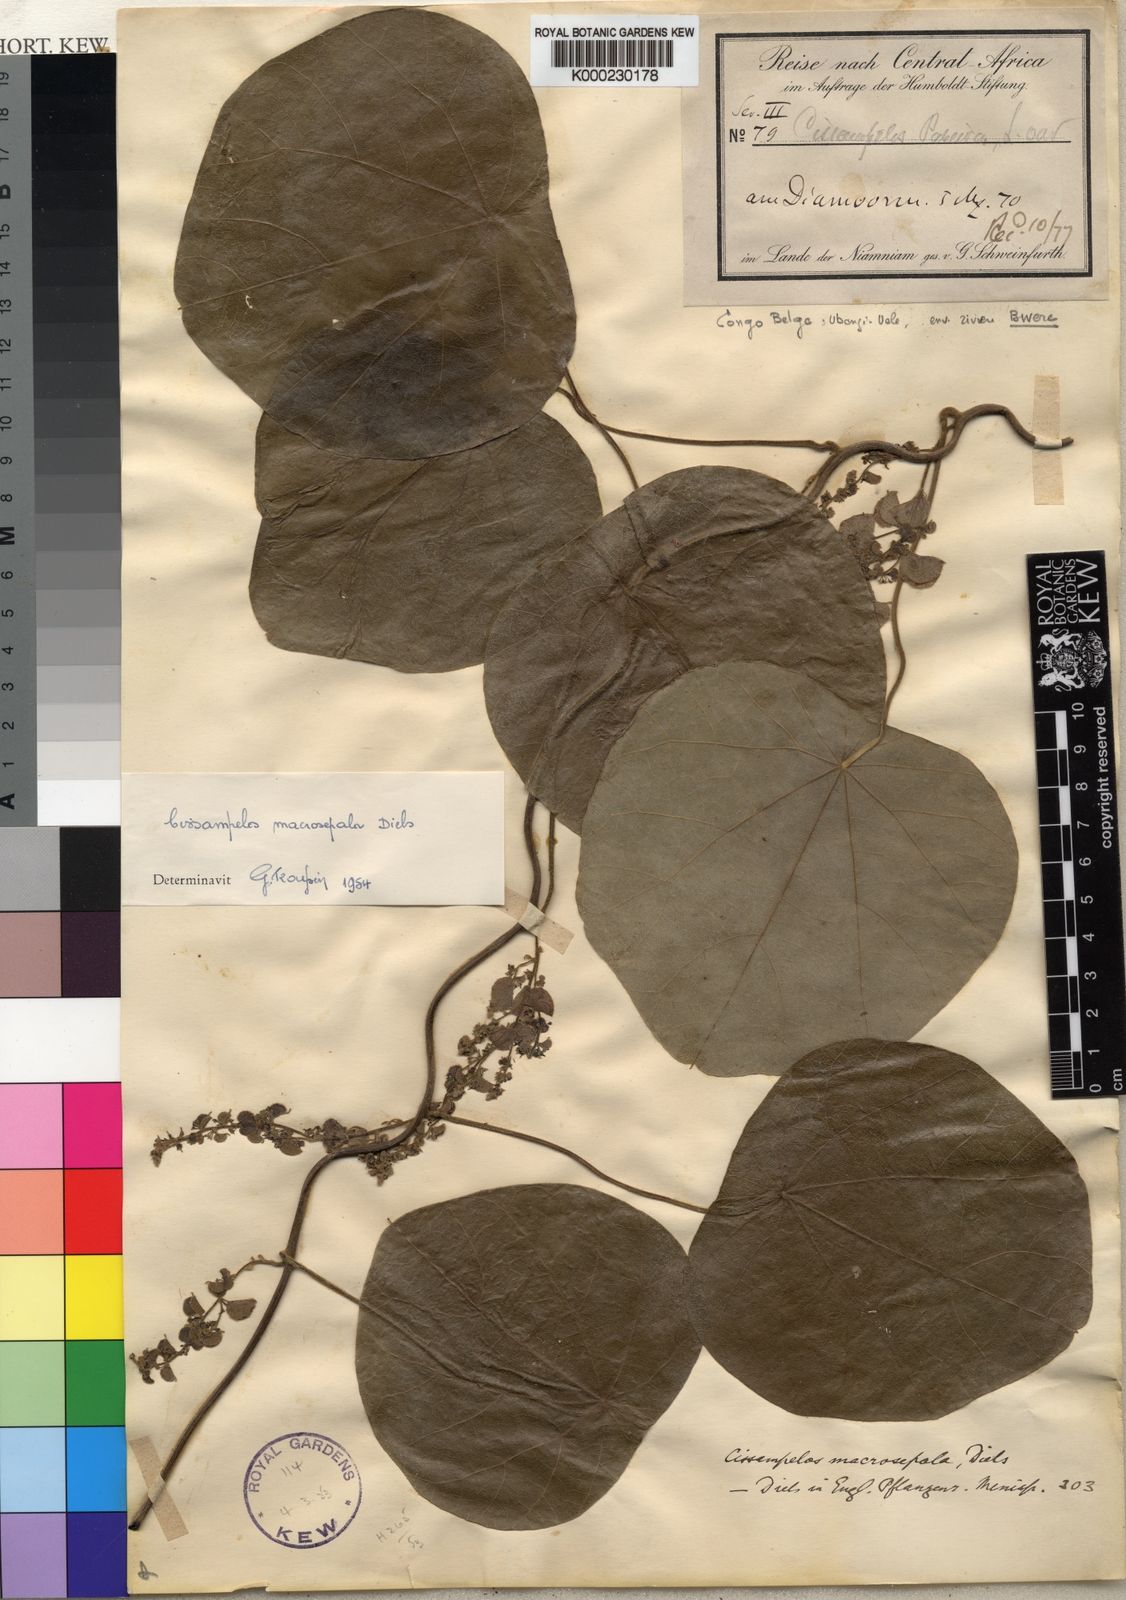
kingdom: Plantae
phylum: Tracheophyta
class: Magnoliopsida
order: Ranunculales
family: Menispermaceae
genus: Cissampelos
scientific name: Cissampelos owariensis
